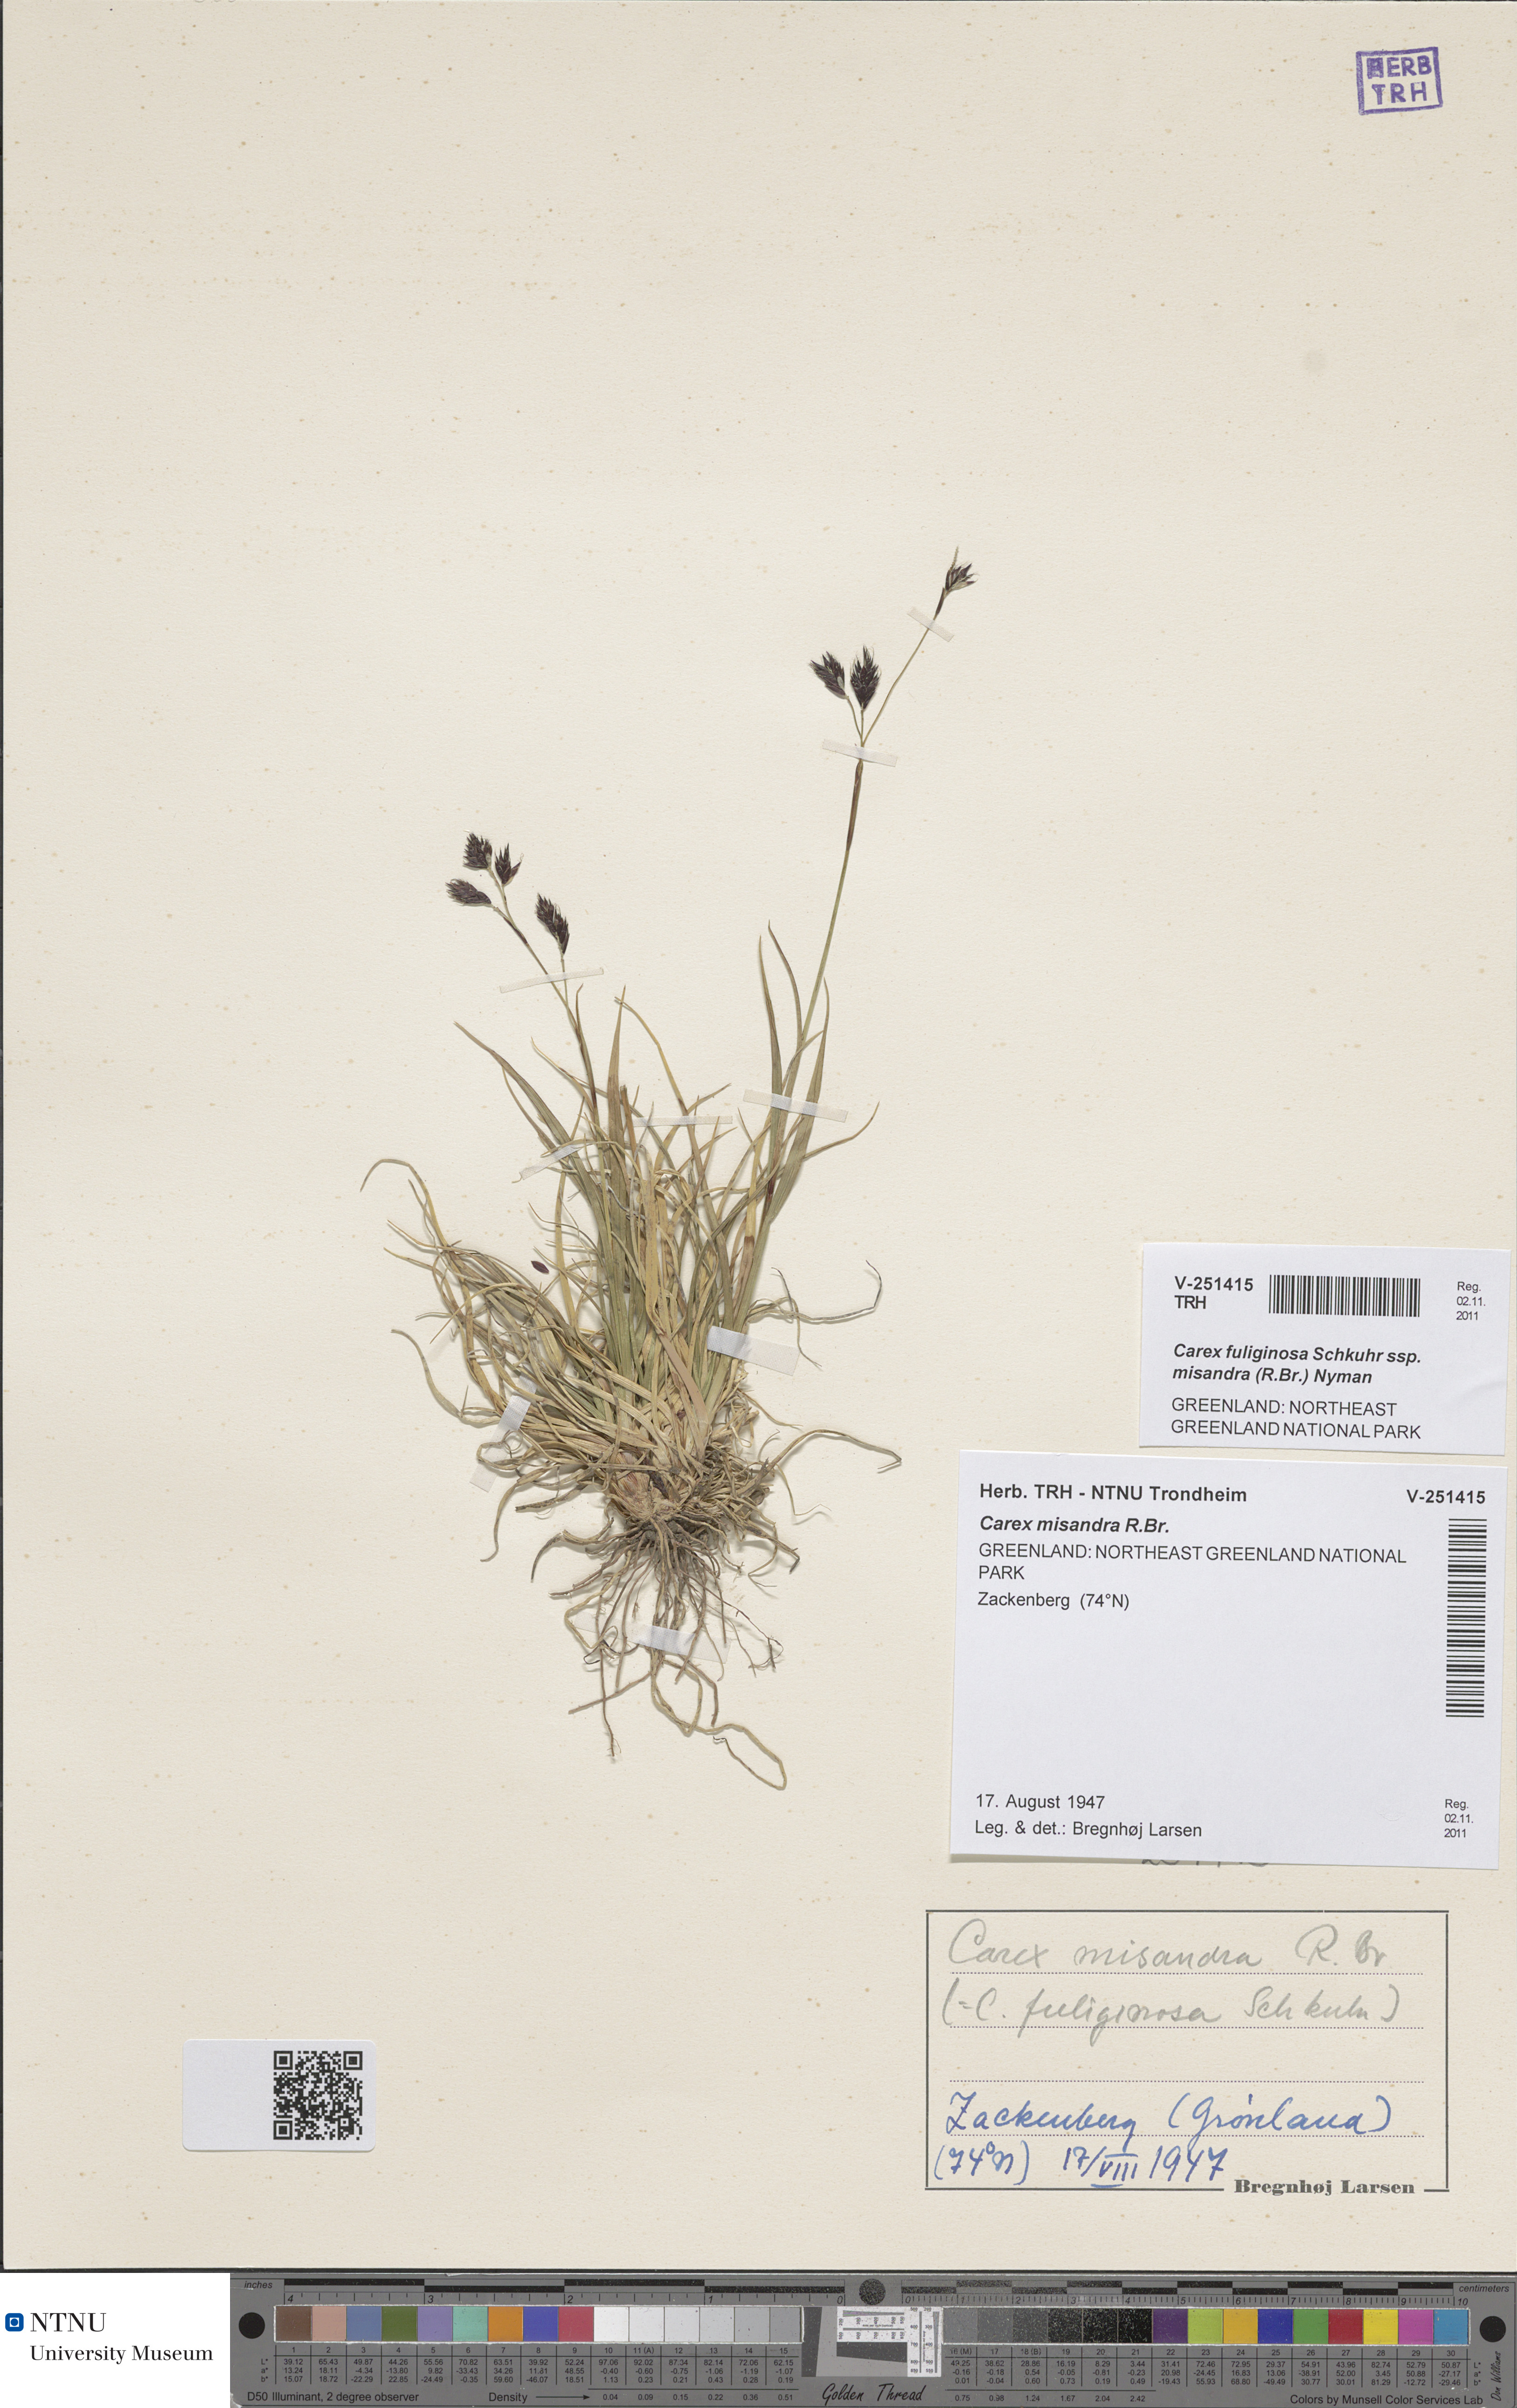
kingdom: Plantae
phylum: Tracheophyta
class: Liliopsida
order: Poales
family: Cyperaceae
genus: Carex
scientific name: Carex fuliginosa
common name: Few-flowered sedge
